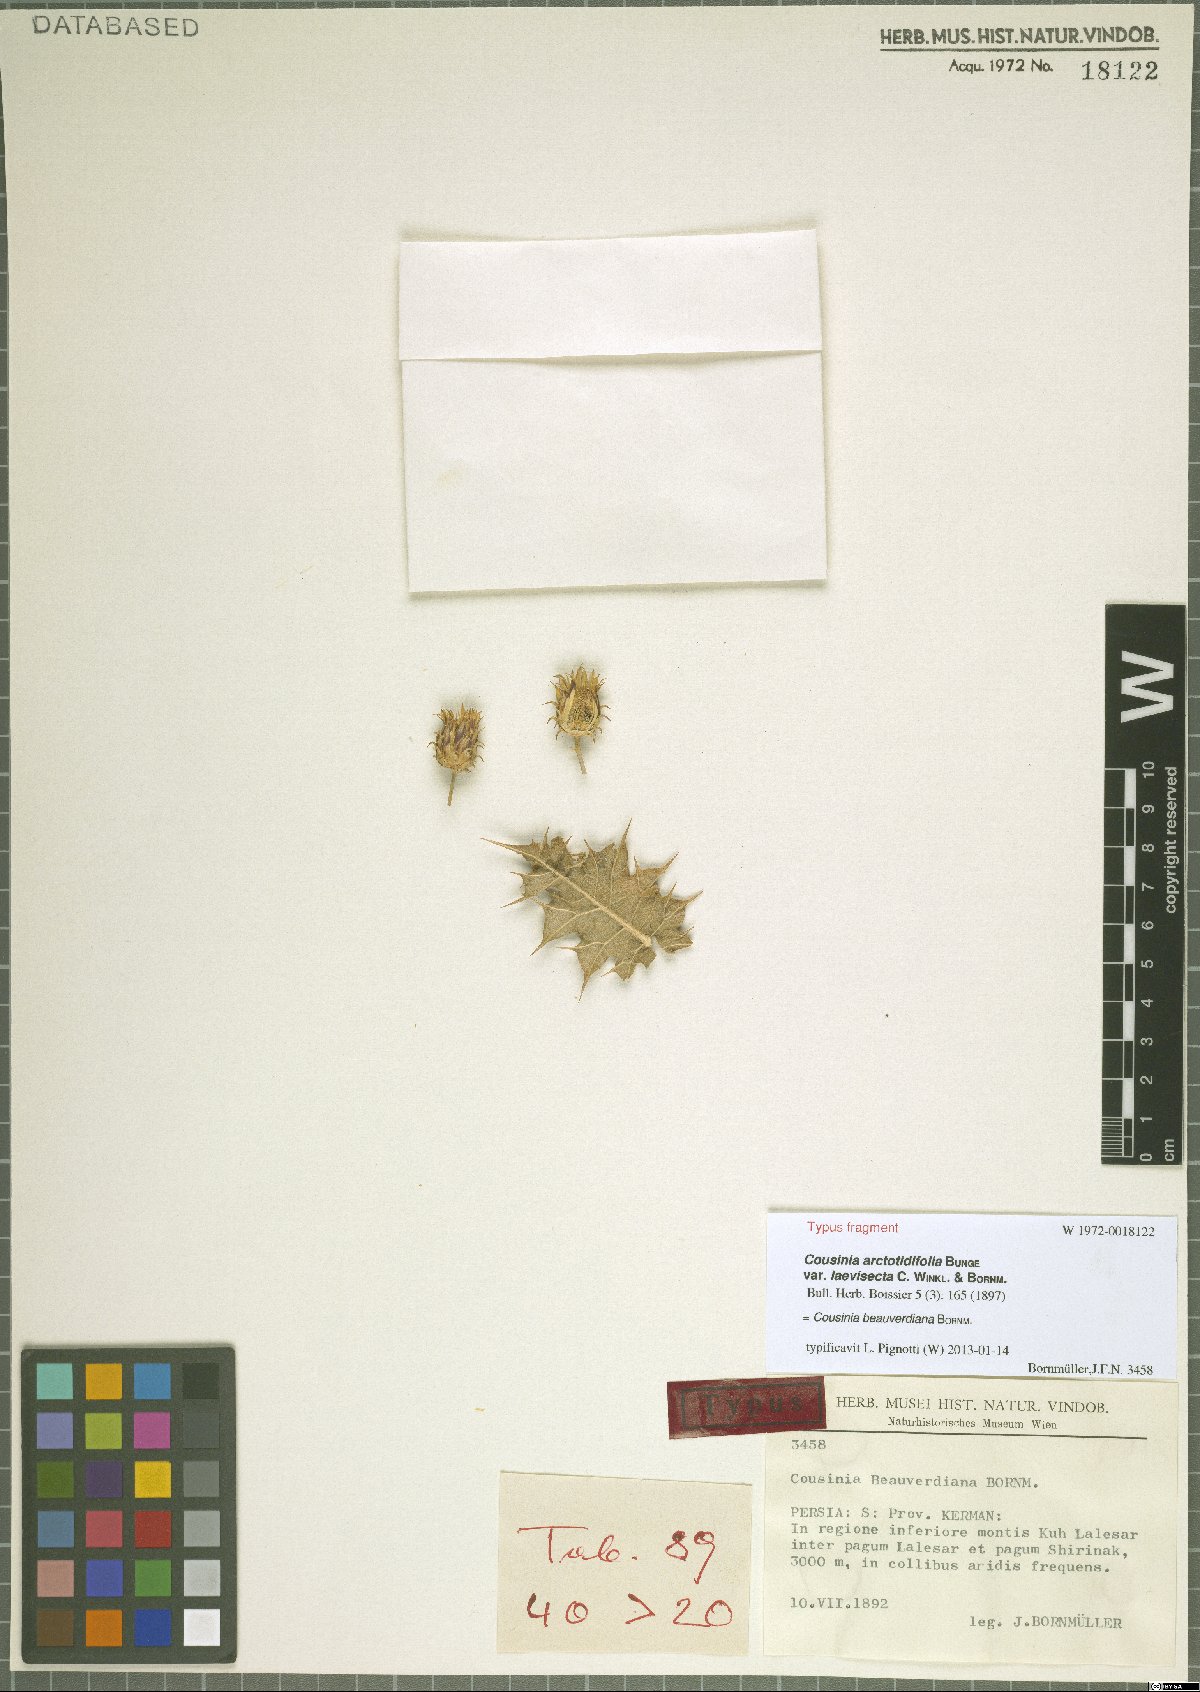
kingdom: Plantae
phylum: Tracheophyta
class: Magnoliopsida
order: Asterales
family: Asteraceae
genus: Cousinia
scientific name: Cousinia beauverdiana
